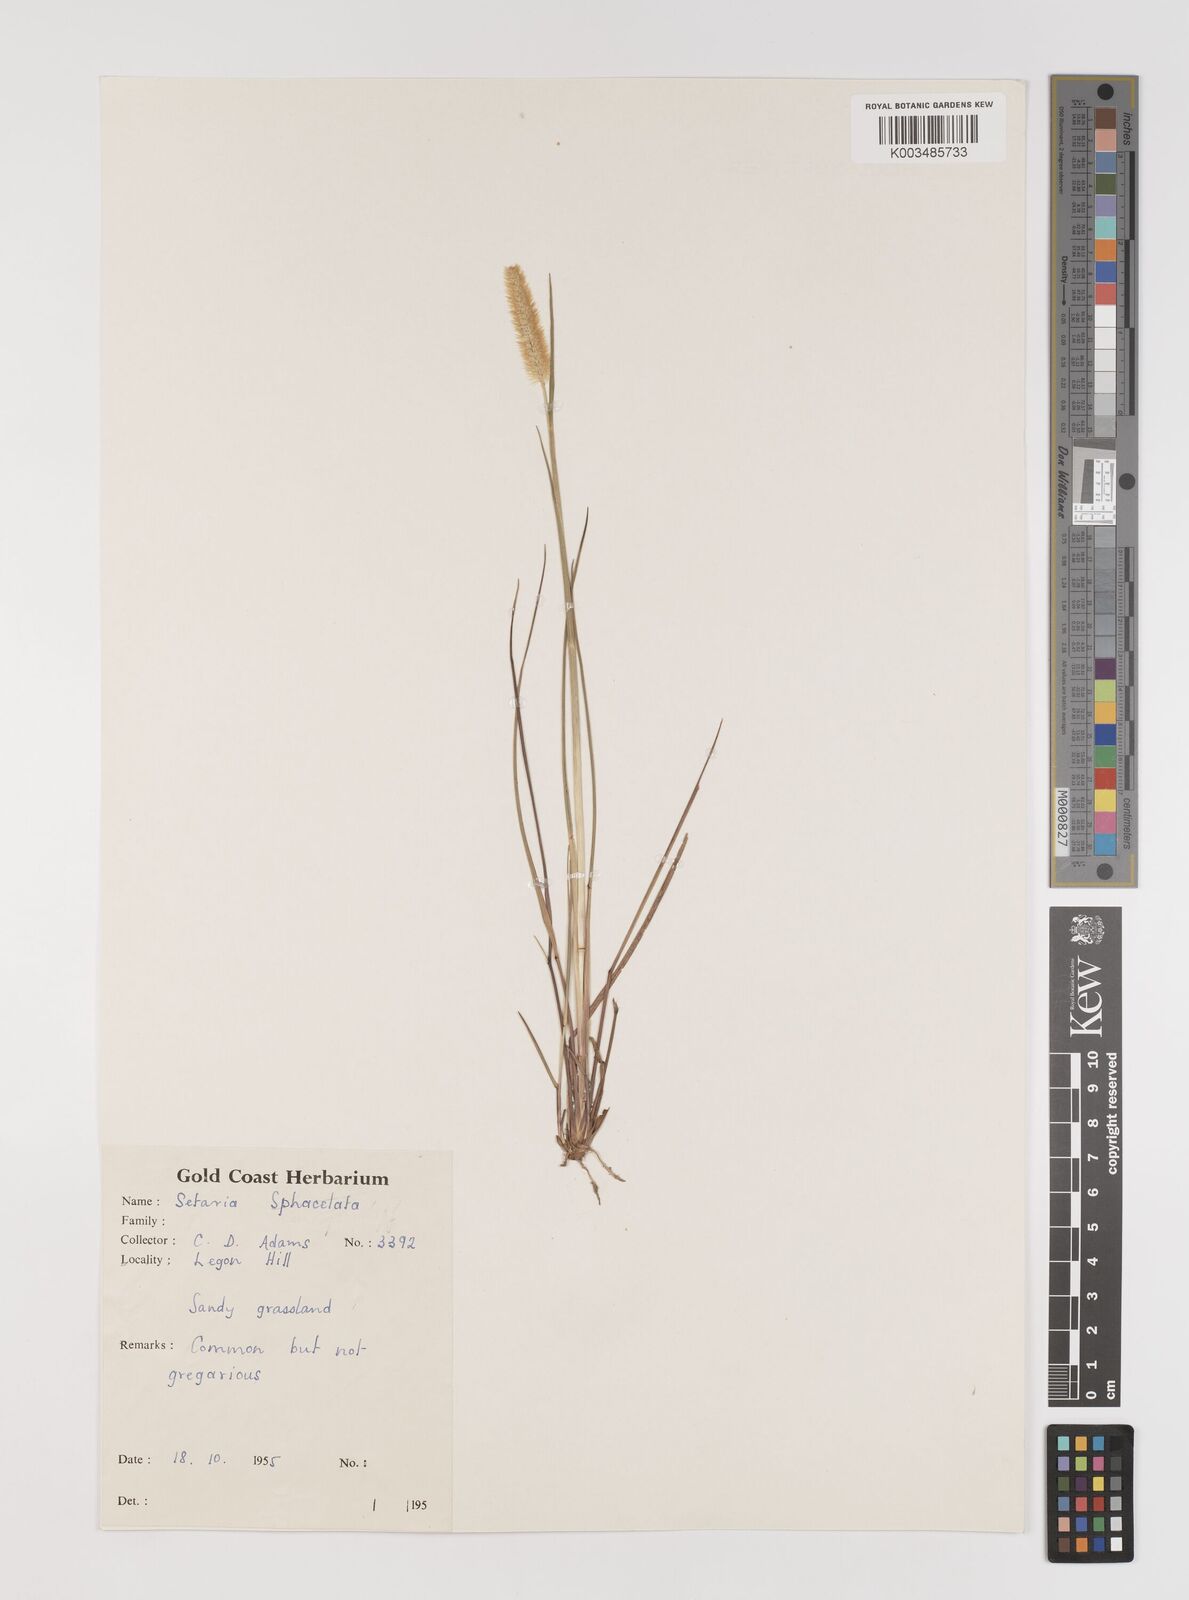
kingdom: Plantae
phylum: Tracheophyta
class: Liliopsida
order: Poales
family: Poaceae
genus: Setaria
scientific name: Setaria sphacelata
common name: African bristlegrass
